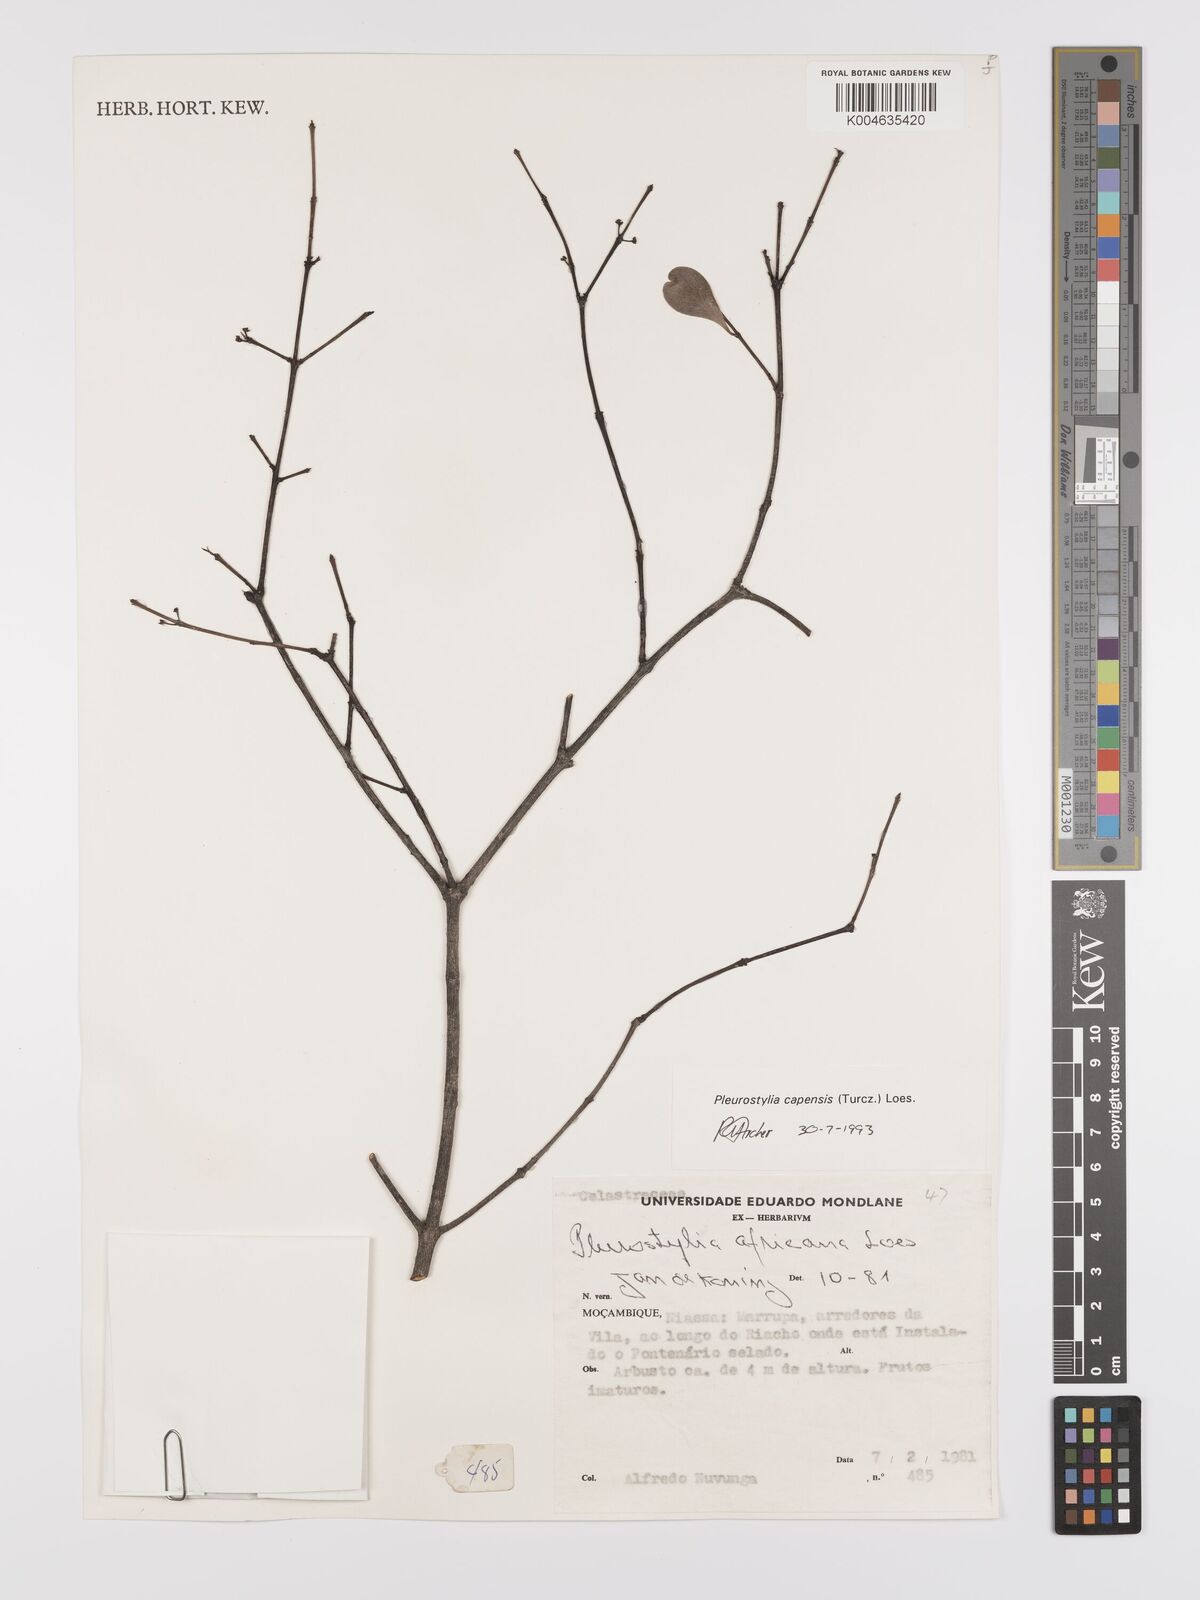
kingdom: Plantae
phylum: Tracheophyta
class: Magnoliopsida
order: Celastrales
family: Celastraceae
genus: Pleurostylia
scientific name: Pleurostylia africana
